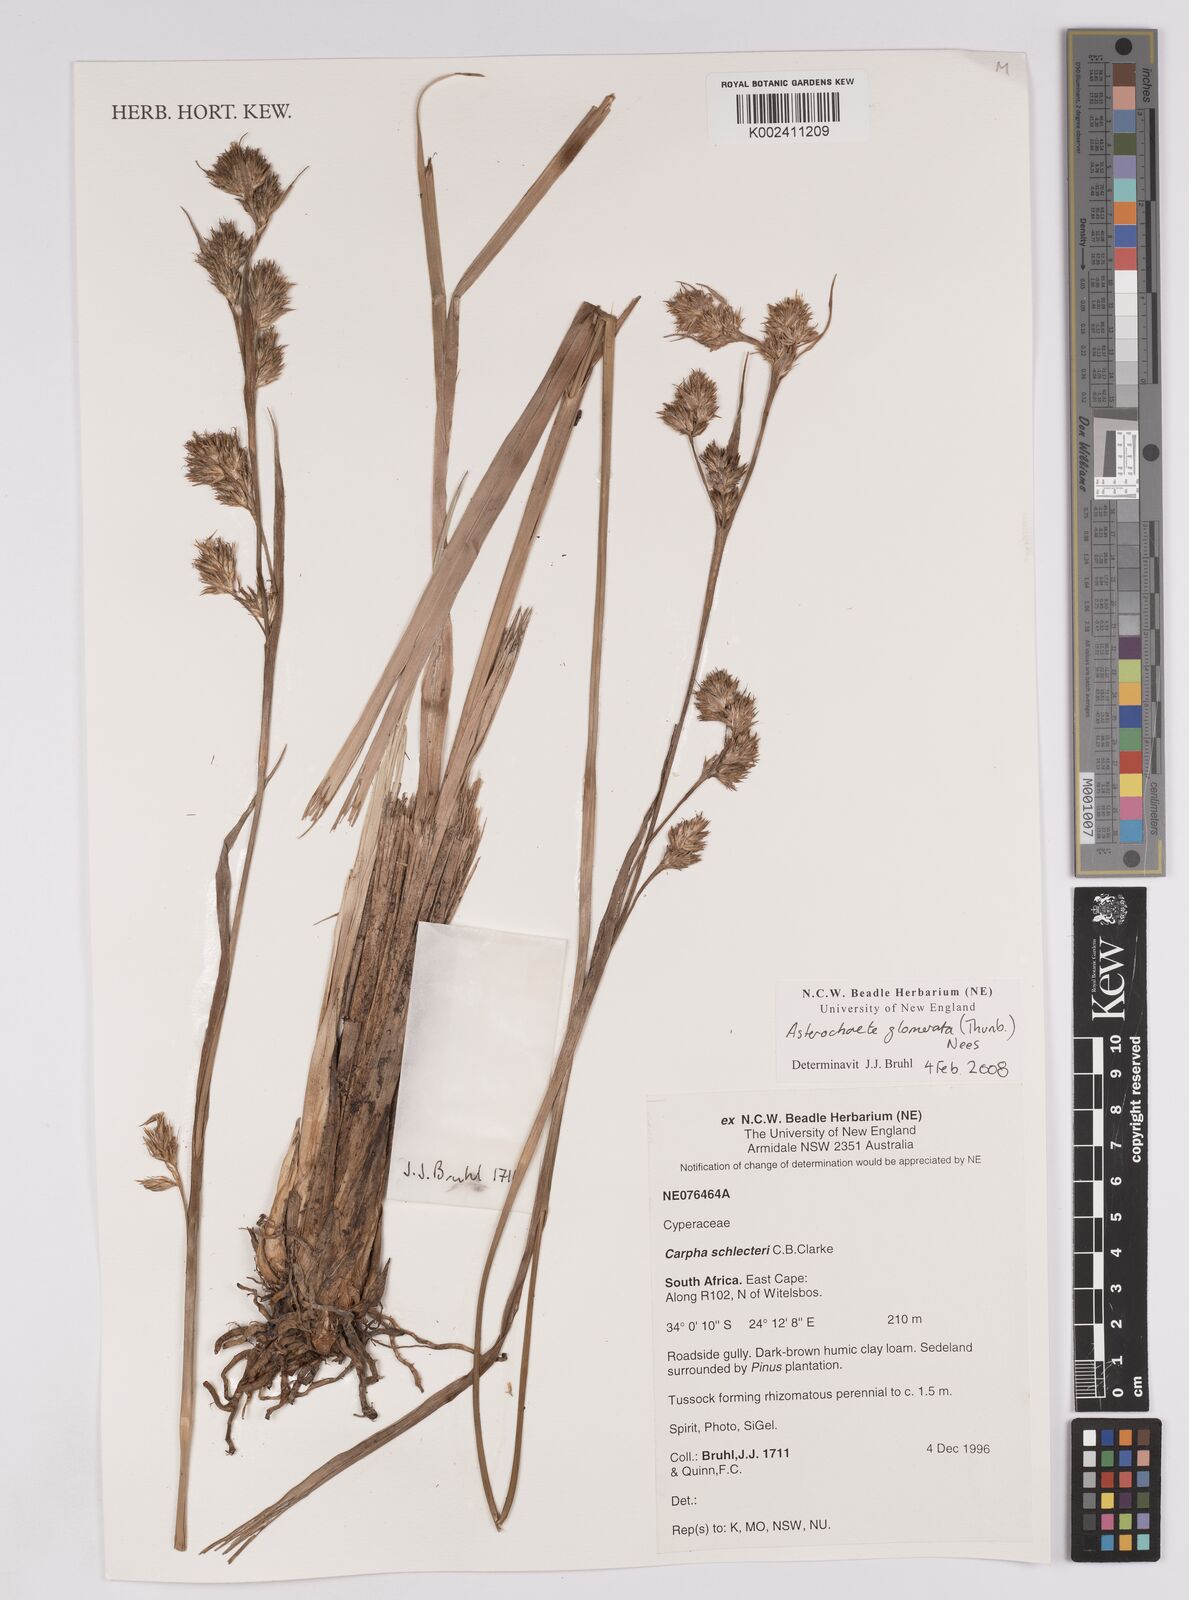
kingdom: Plantae
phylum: Tracheophyta
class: Liliopsida
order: Poales
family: Cyperaceae
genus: Carpha
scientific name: Carpha glomerata
